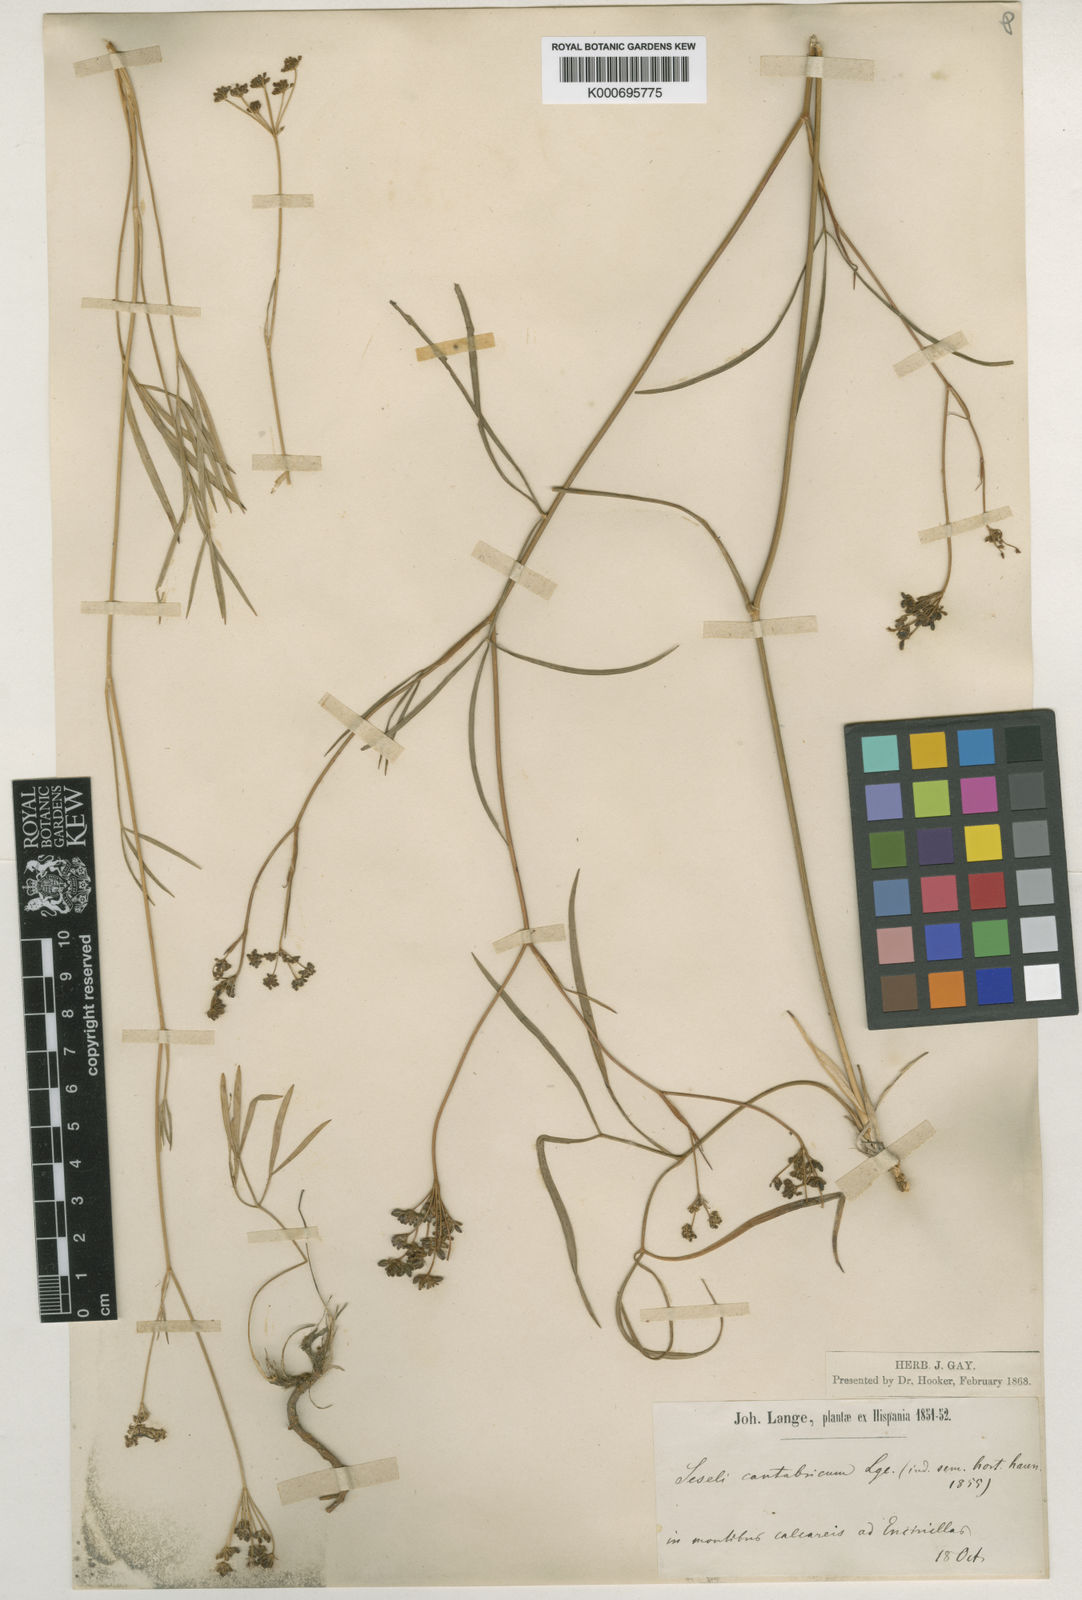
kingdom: Plantae
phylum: Tracheophyta
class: Magnoliopsida
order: Apiales
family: Apiaceae
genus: Seseli
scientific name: Seseli cantabricum
